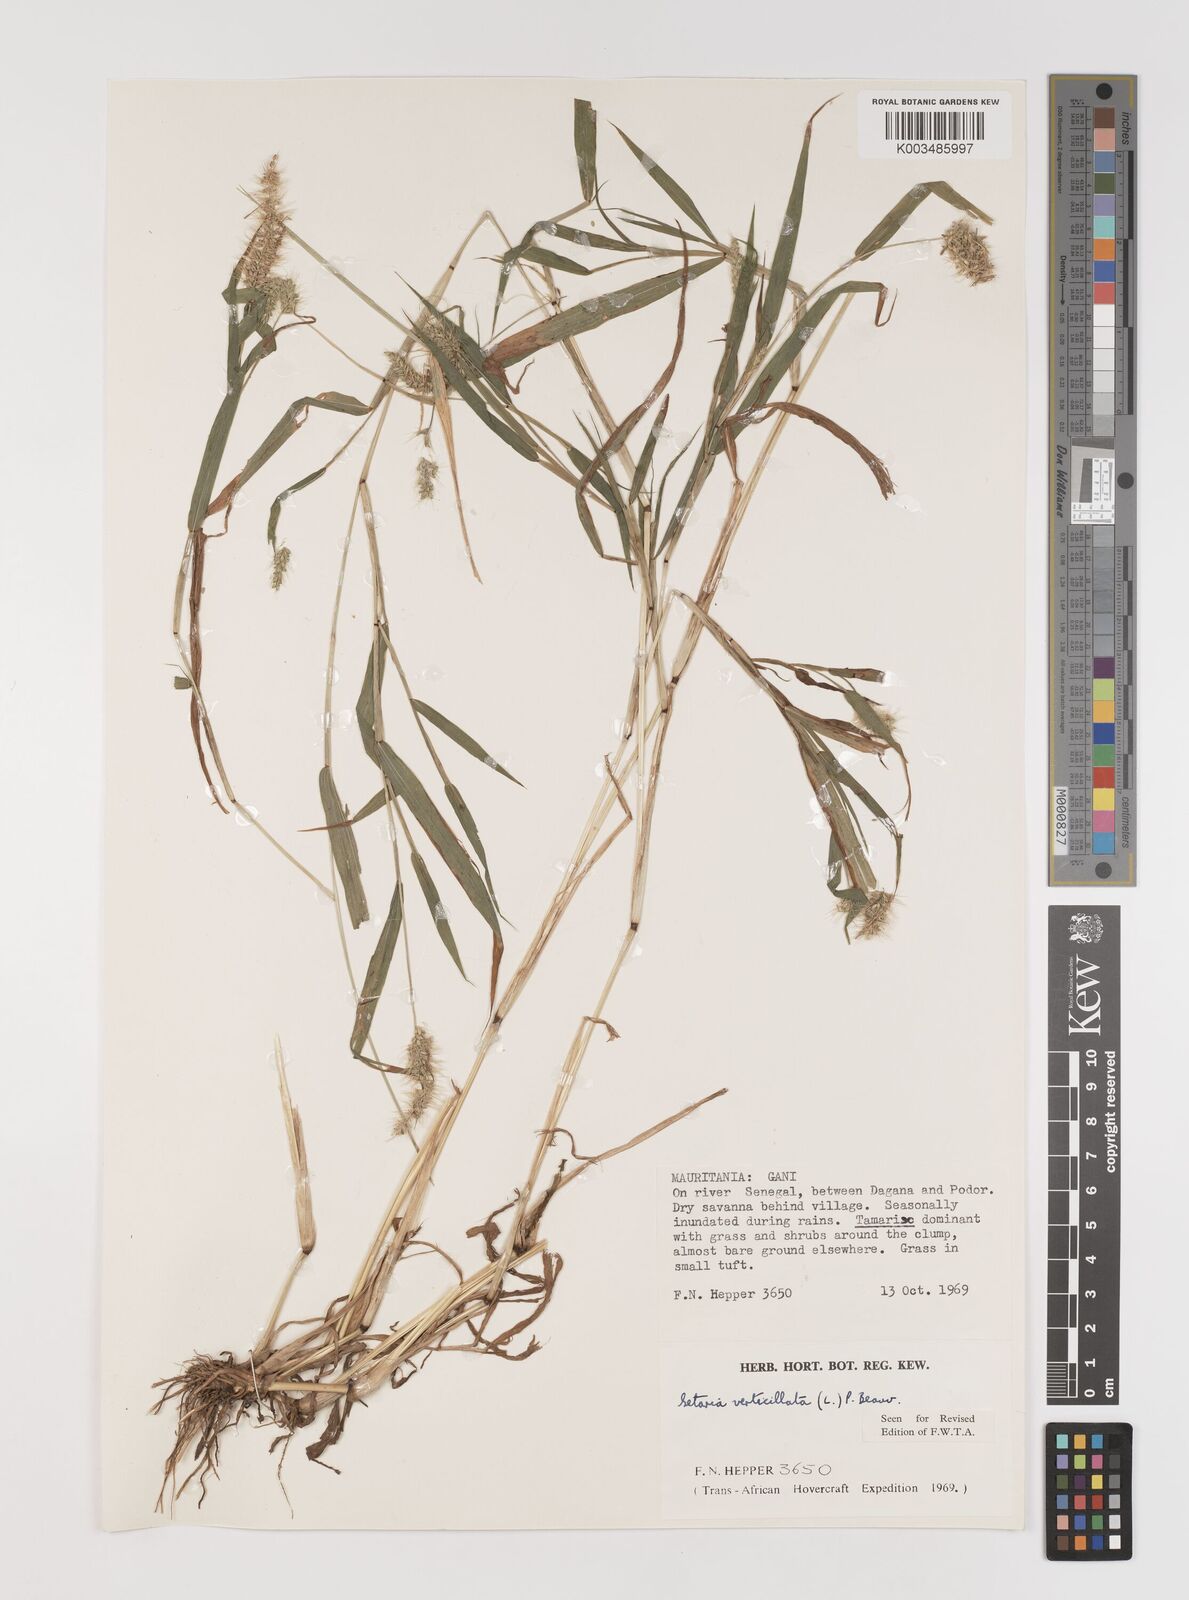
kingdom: Plantae
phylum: Tracheophyta
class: Liliopsida
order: Poales
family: Poaceae
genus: Setaria
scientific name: Setaria verticillata
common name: Hooked bristlegrass
